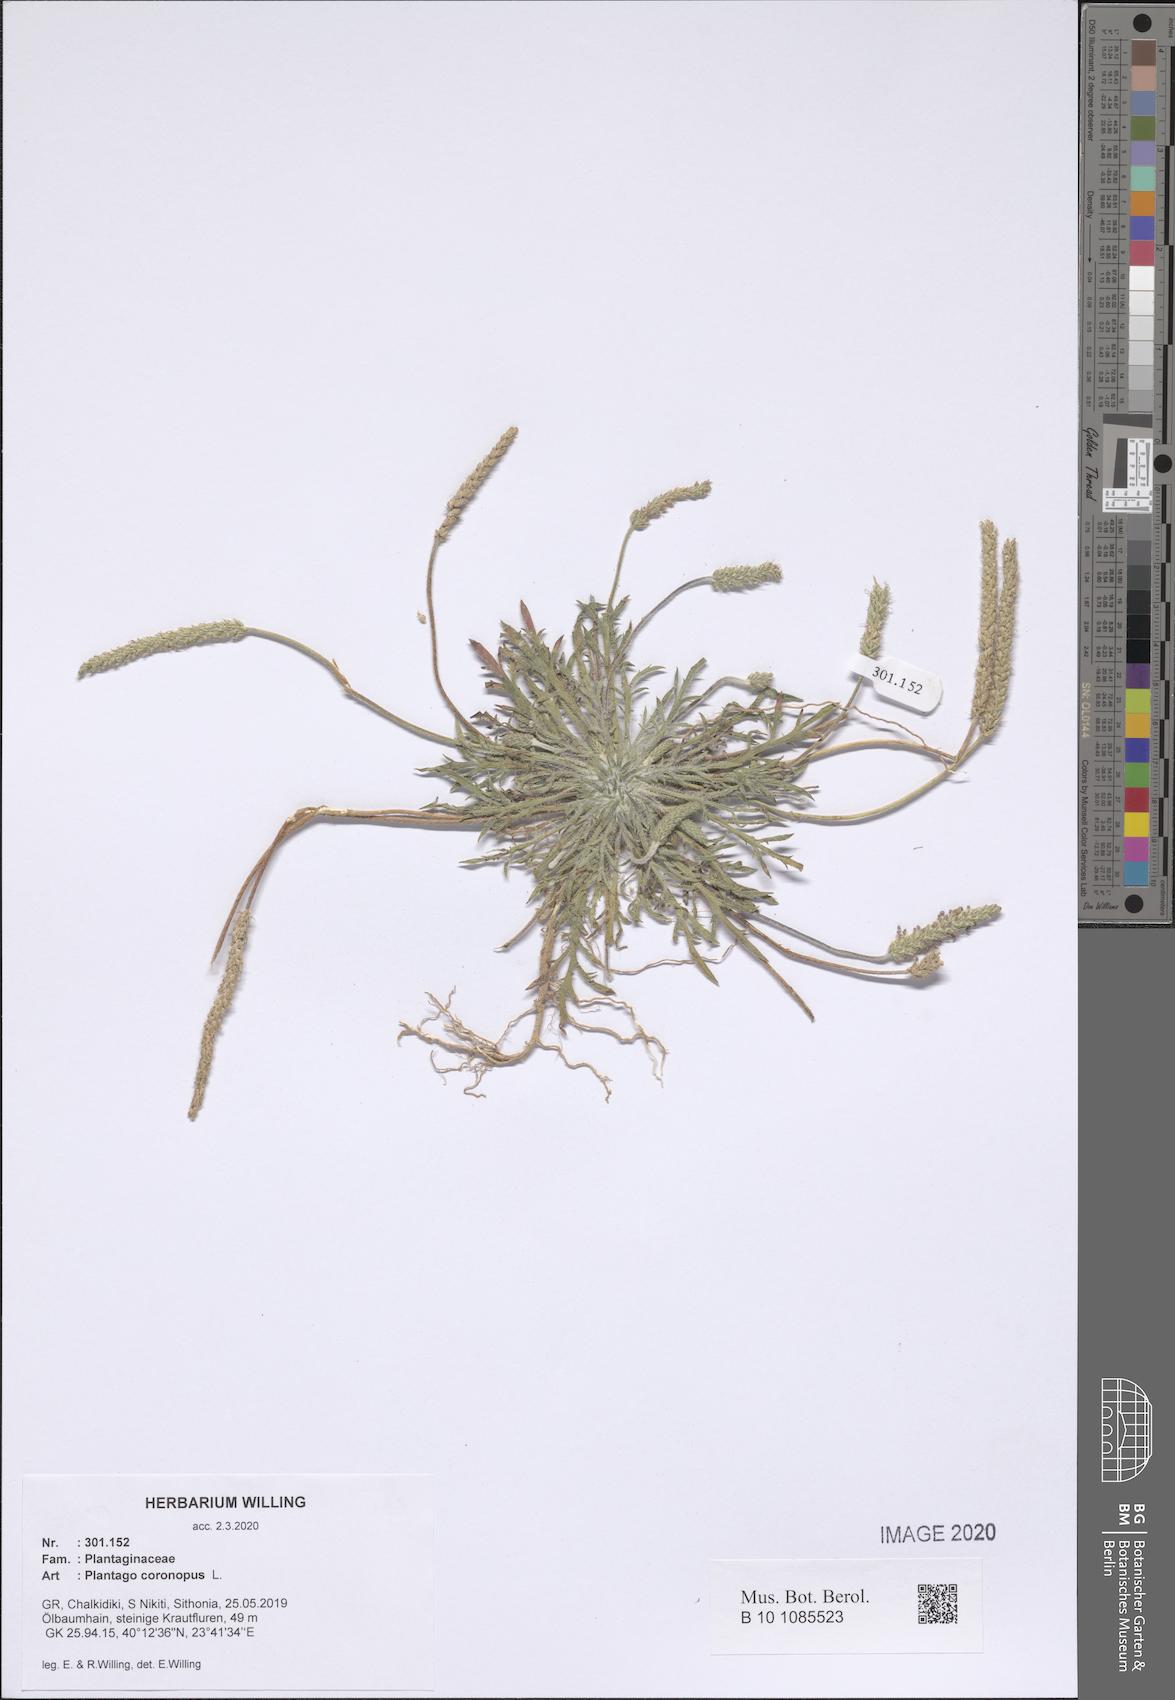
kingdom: Plantae
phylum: Tracheophyta
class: Magnoliopsida
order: Lamiales
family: Plantaginaceae
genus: Plantago
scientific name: Plantago coronopus
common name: Buck's-horn plantain
